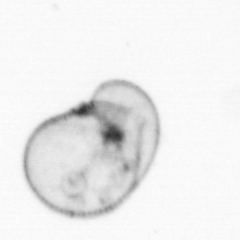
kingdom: Chromista
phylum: Myzozoa
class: Dinophyceae
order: Noctilucales
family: Noctilucaceae
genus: Noctiluca
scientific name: Noctiluca scintillans
